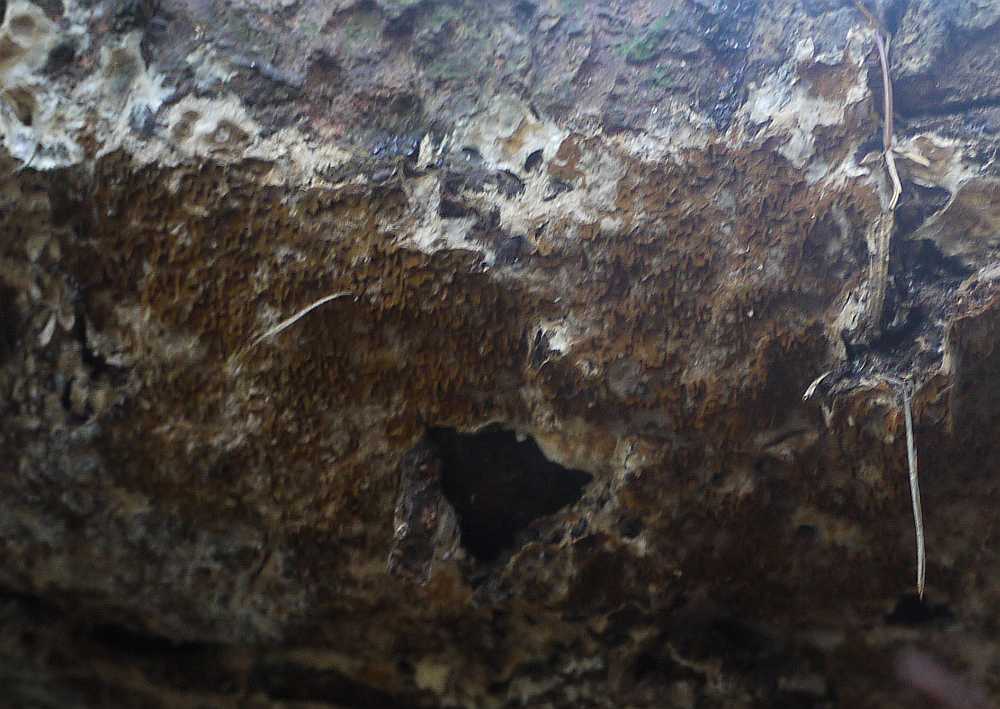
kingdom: Fungi
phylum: Basidiomycota
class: Agaricomycetes
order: Boletales
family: Serpulaceae
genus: Serpula
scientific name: Serpula himantioides
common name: tyndkødet hussvamp
